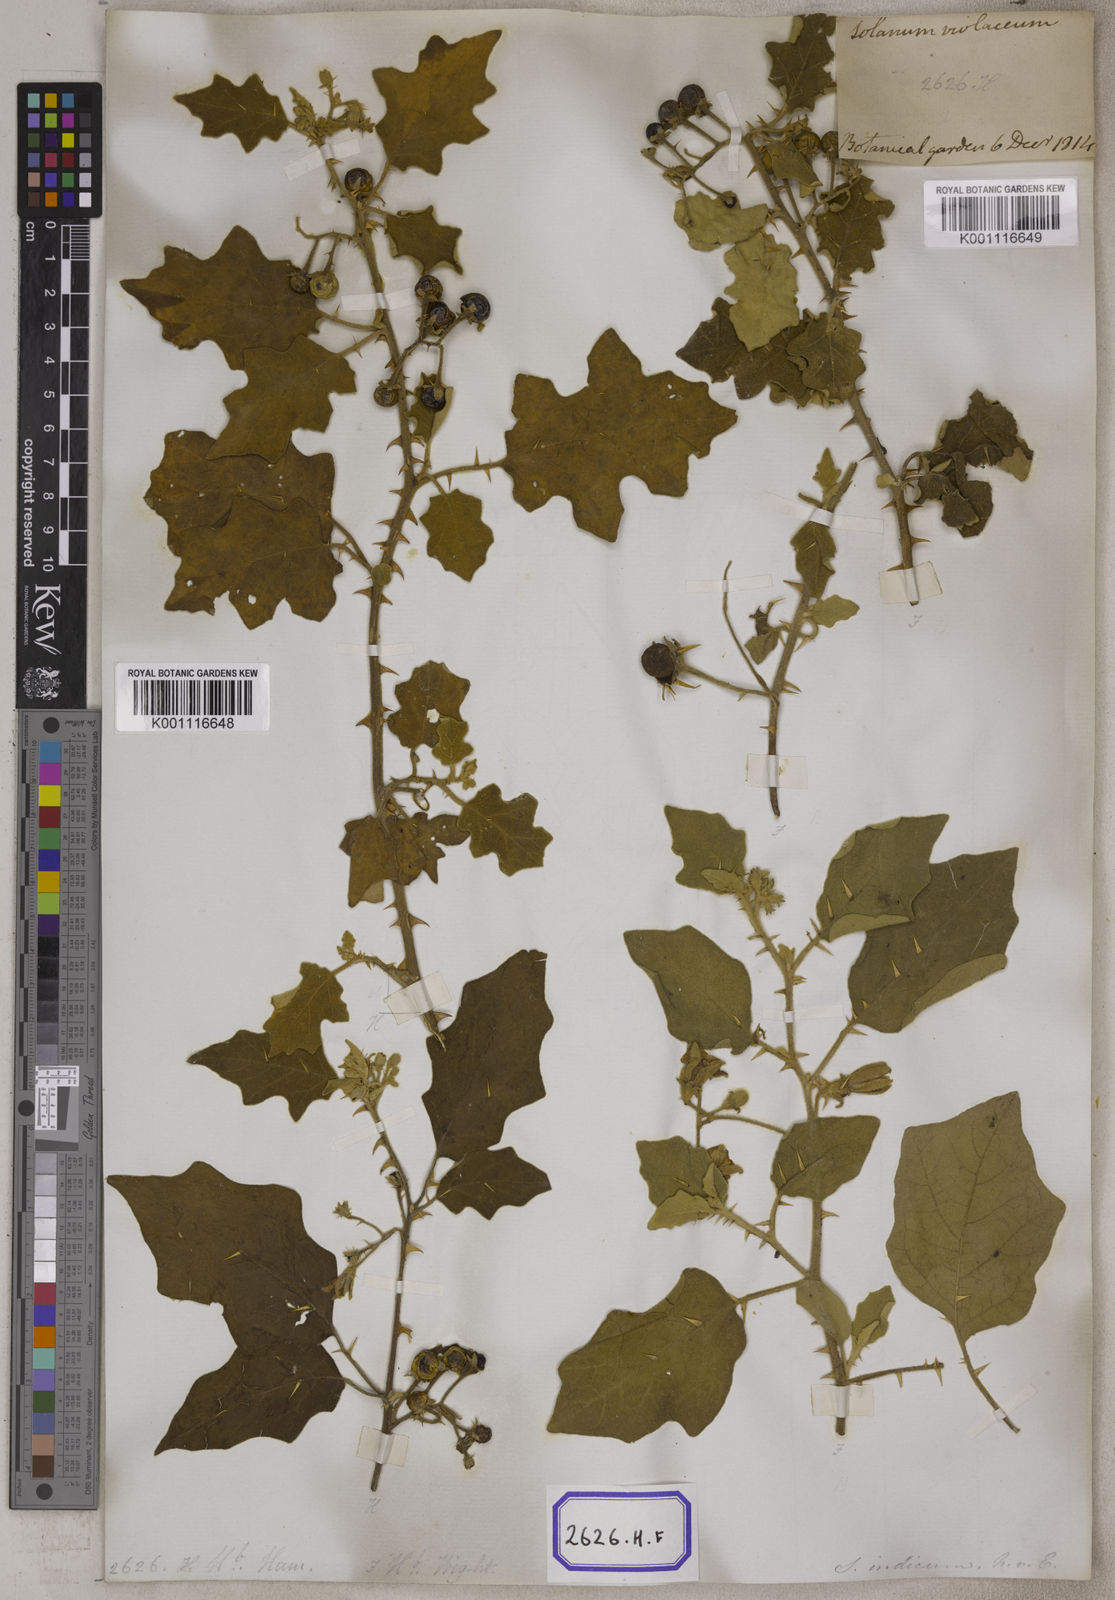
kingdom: Plantae
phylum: Tracheophyta
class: Magnoliopsida
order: Solanales
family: Solanaceae
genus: Solanum
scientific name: Solanum violaceum
